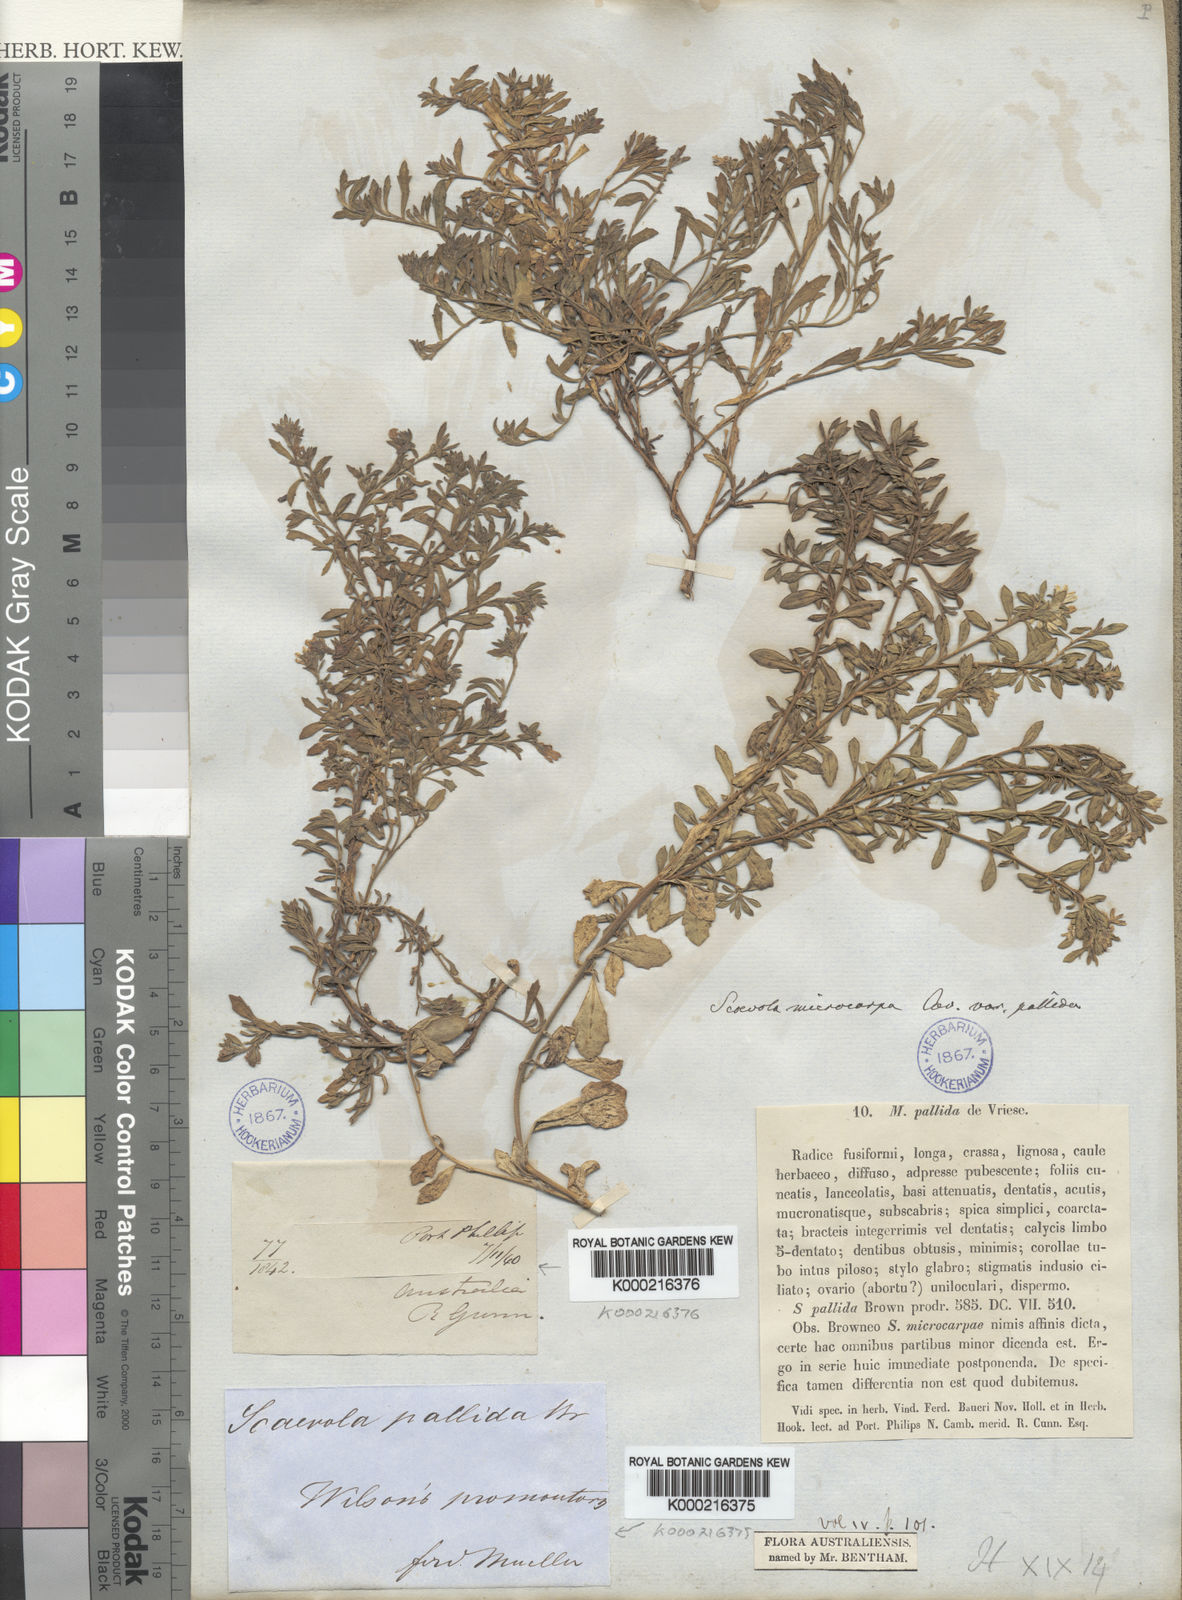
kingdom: Plantae
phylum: Tracheophyta
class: Magnoliopsida
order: Asterales
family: Goodeniaceae
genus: Scaevola
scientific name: Scaevola
